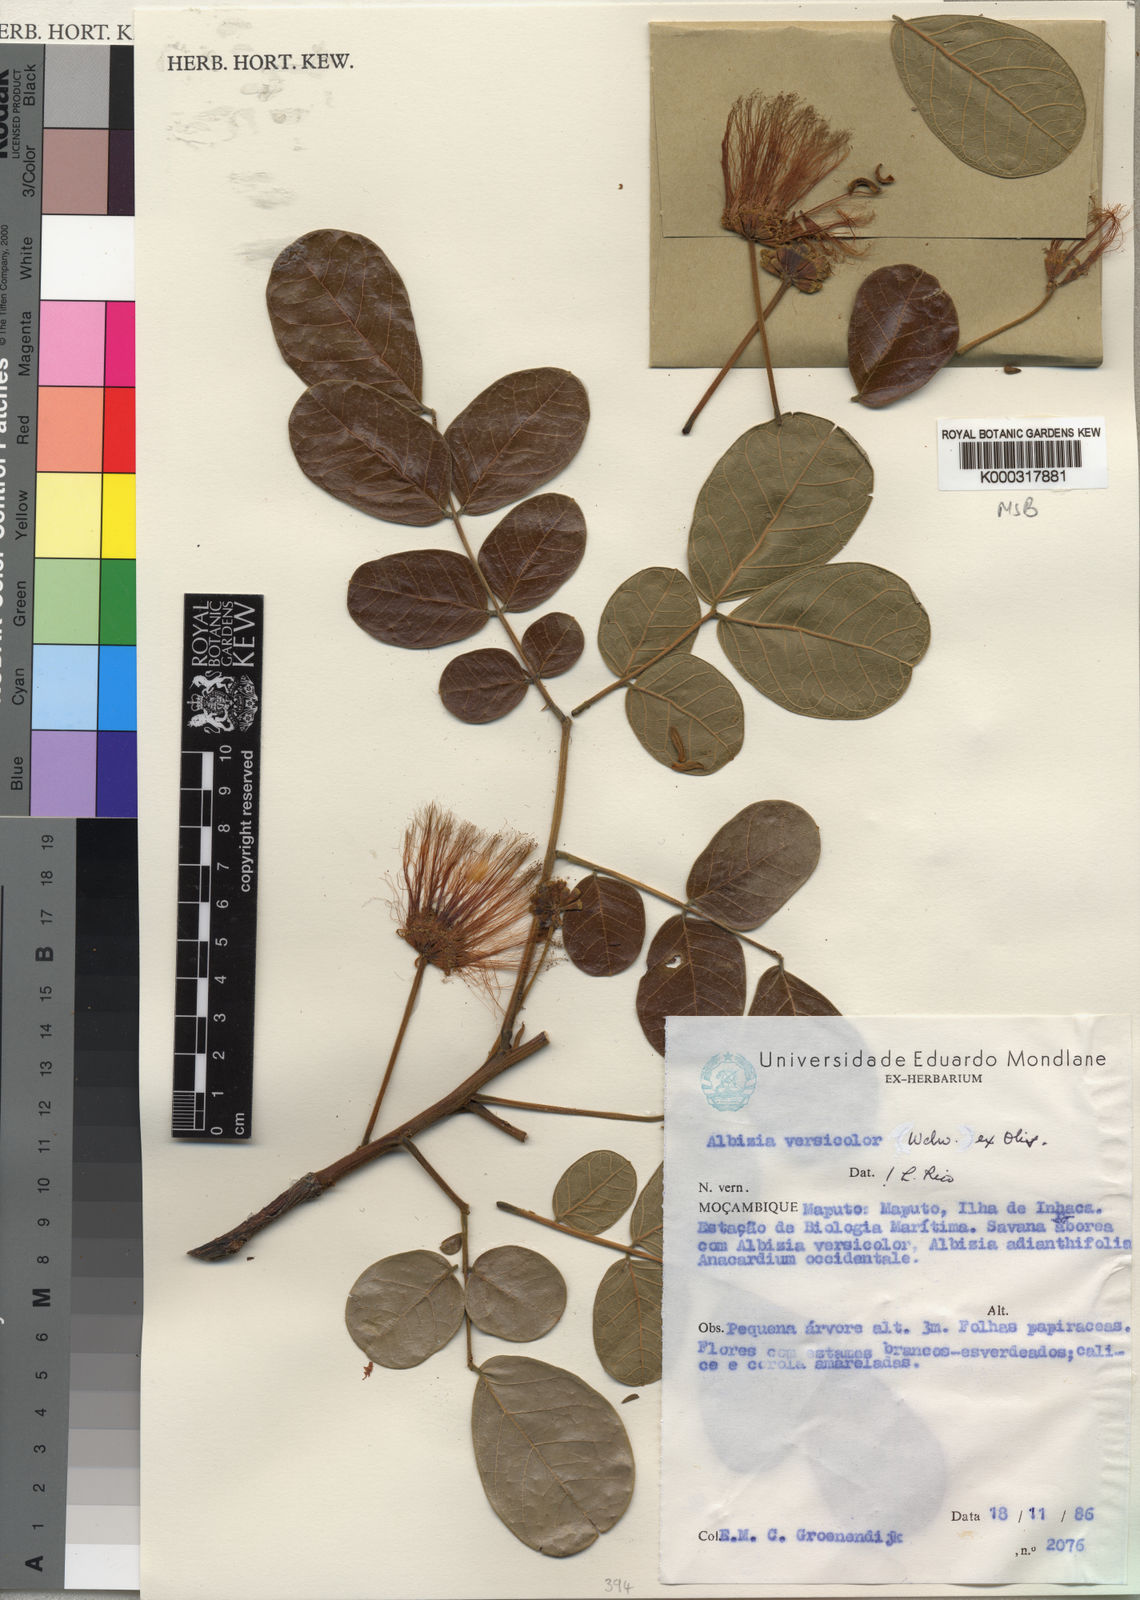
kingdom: Plantae
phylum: Tracheophyta
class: Magnoliopsida
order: Fabales
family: Fabaceae
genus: Albizia
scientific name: Albizia versicolor
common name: Poisonpod
